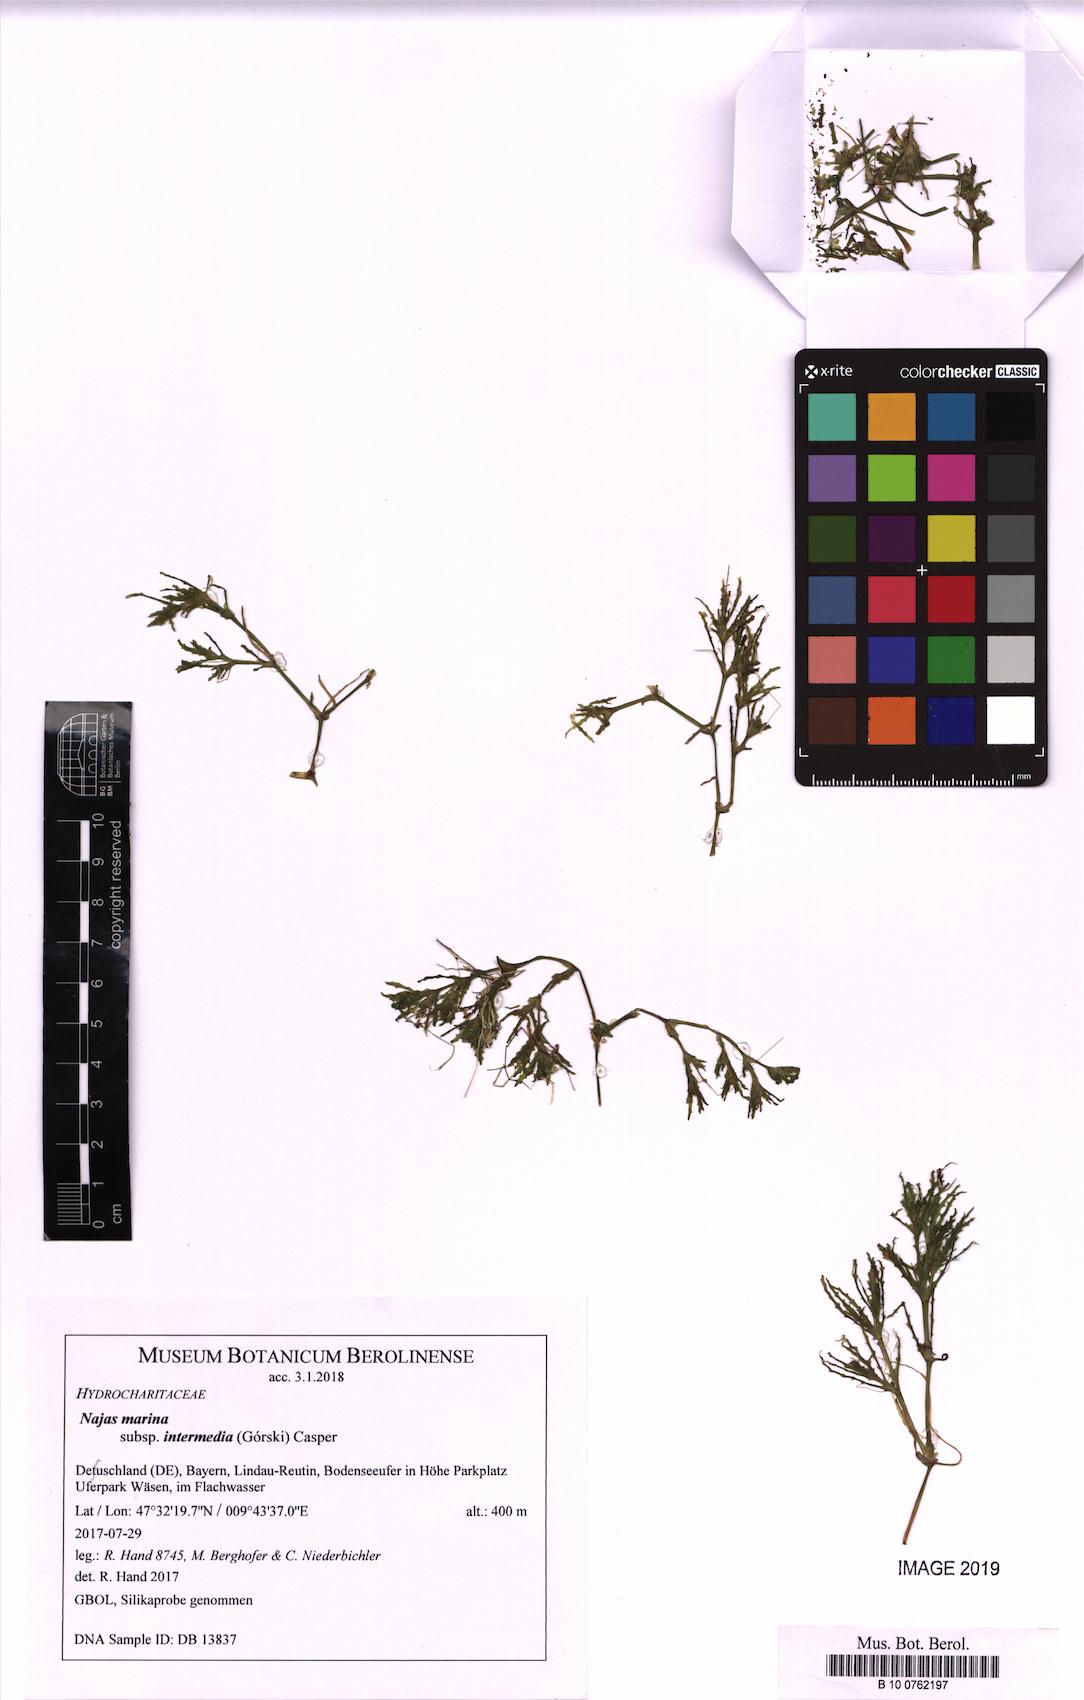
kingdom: Plantae
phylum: Tracheophyta
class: Liliopsida
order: Alismatales
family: Hydrocharitaceae
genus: Najas
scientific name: Najas marina
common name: Holly-leaved naiad
